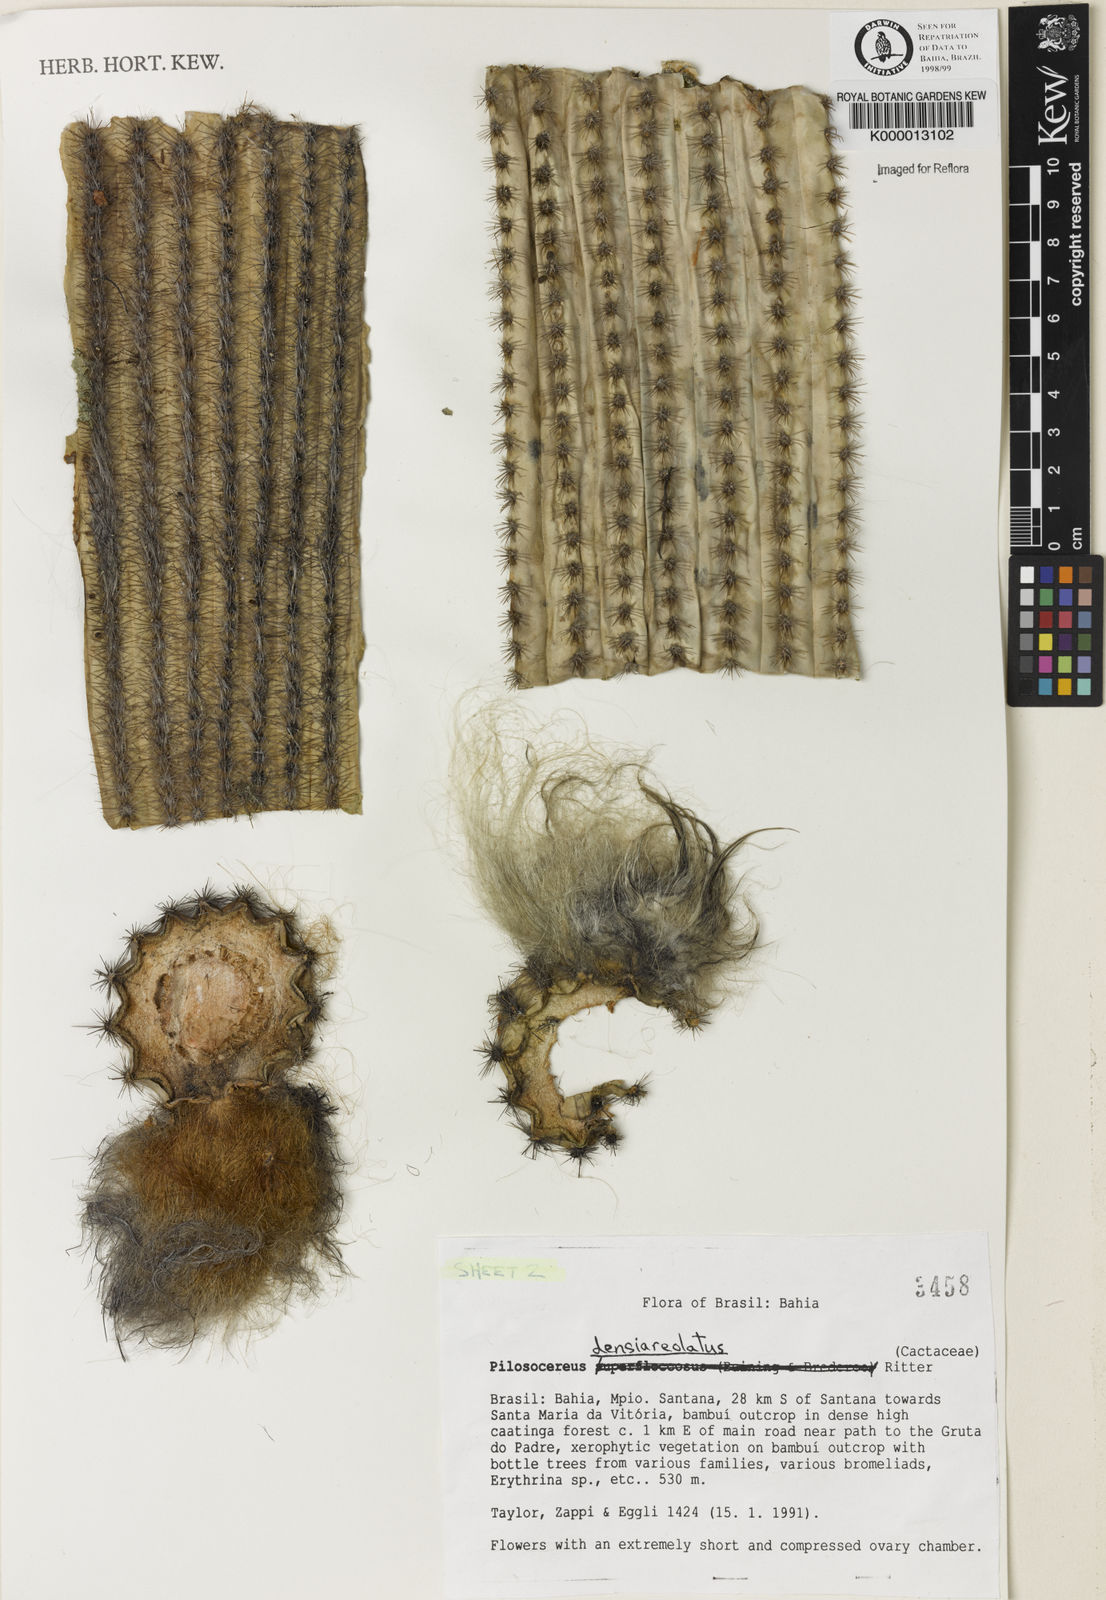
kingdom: Plantae
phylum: Tracheophyta
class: Magnoliopsida
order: Caryophyllales
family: Cactaceae
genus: Pilosocereus
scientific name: Pilosocereus densiareolatus
